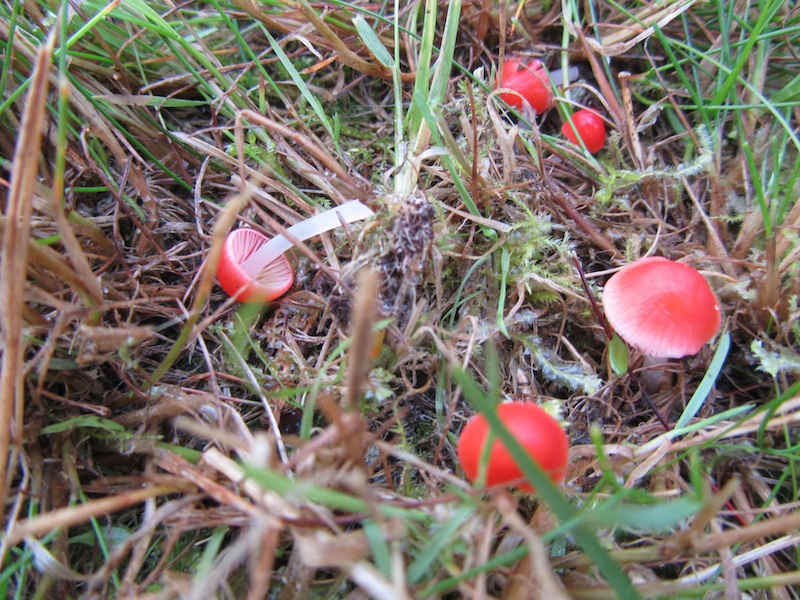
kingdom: Fungi
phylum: Basidiomycota
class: Agaricomycetes
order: Agaricales
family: Mycenaceae
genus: Atheniella
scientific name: Atheniella adonis
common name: rønnerød huesvamp
